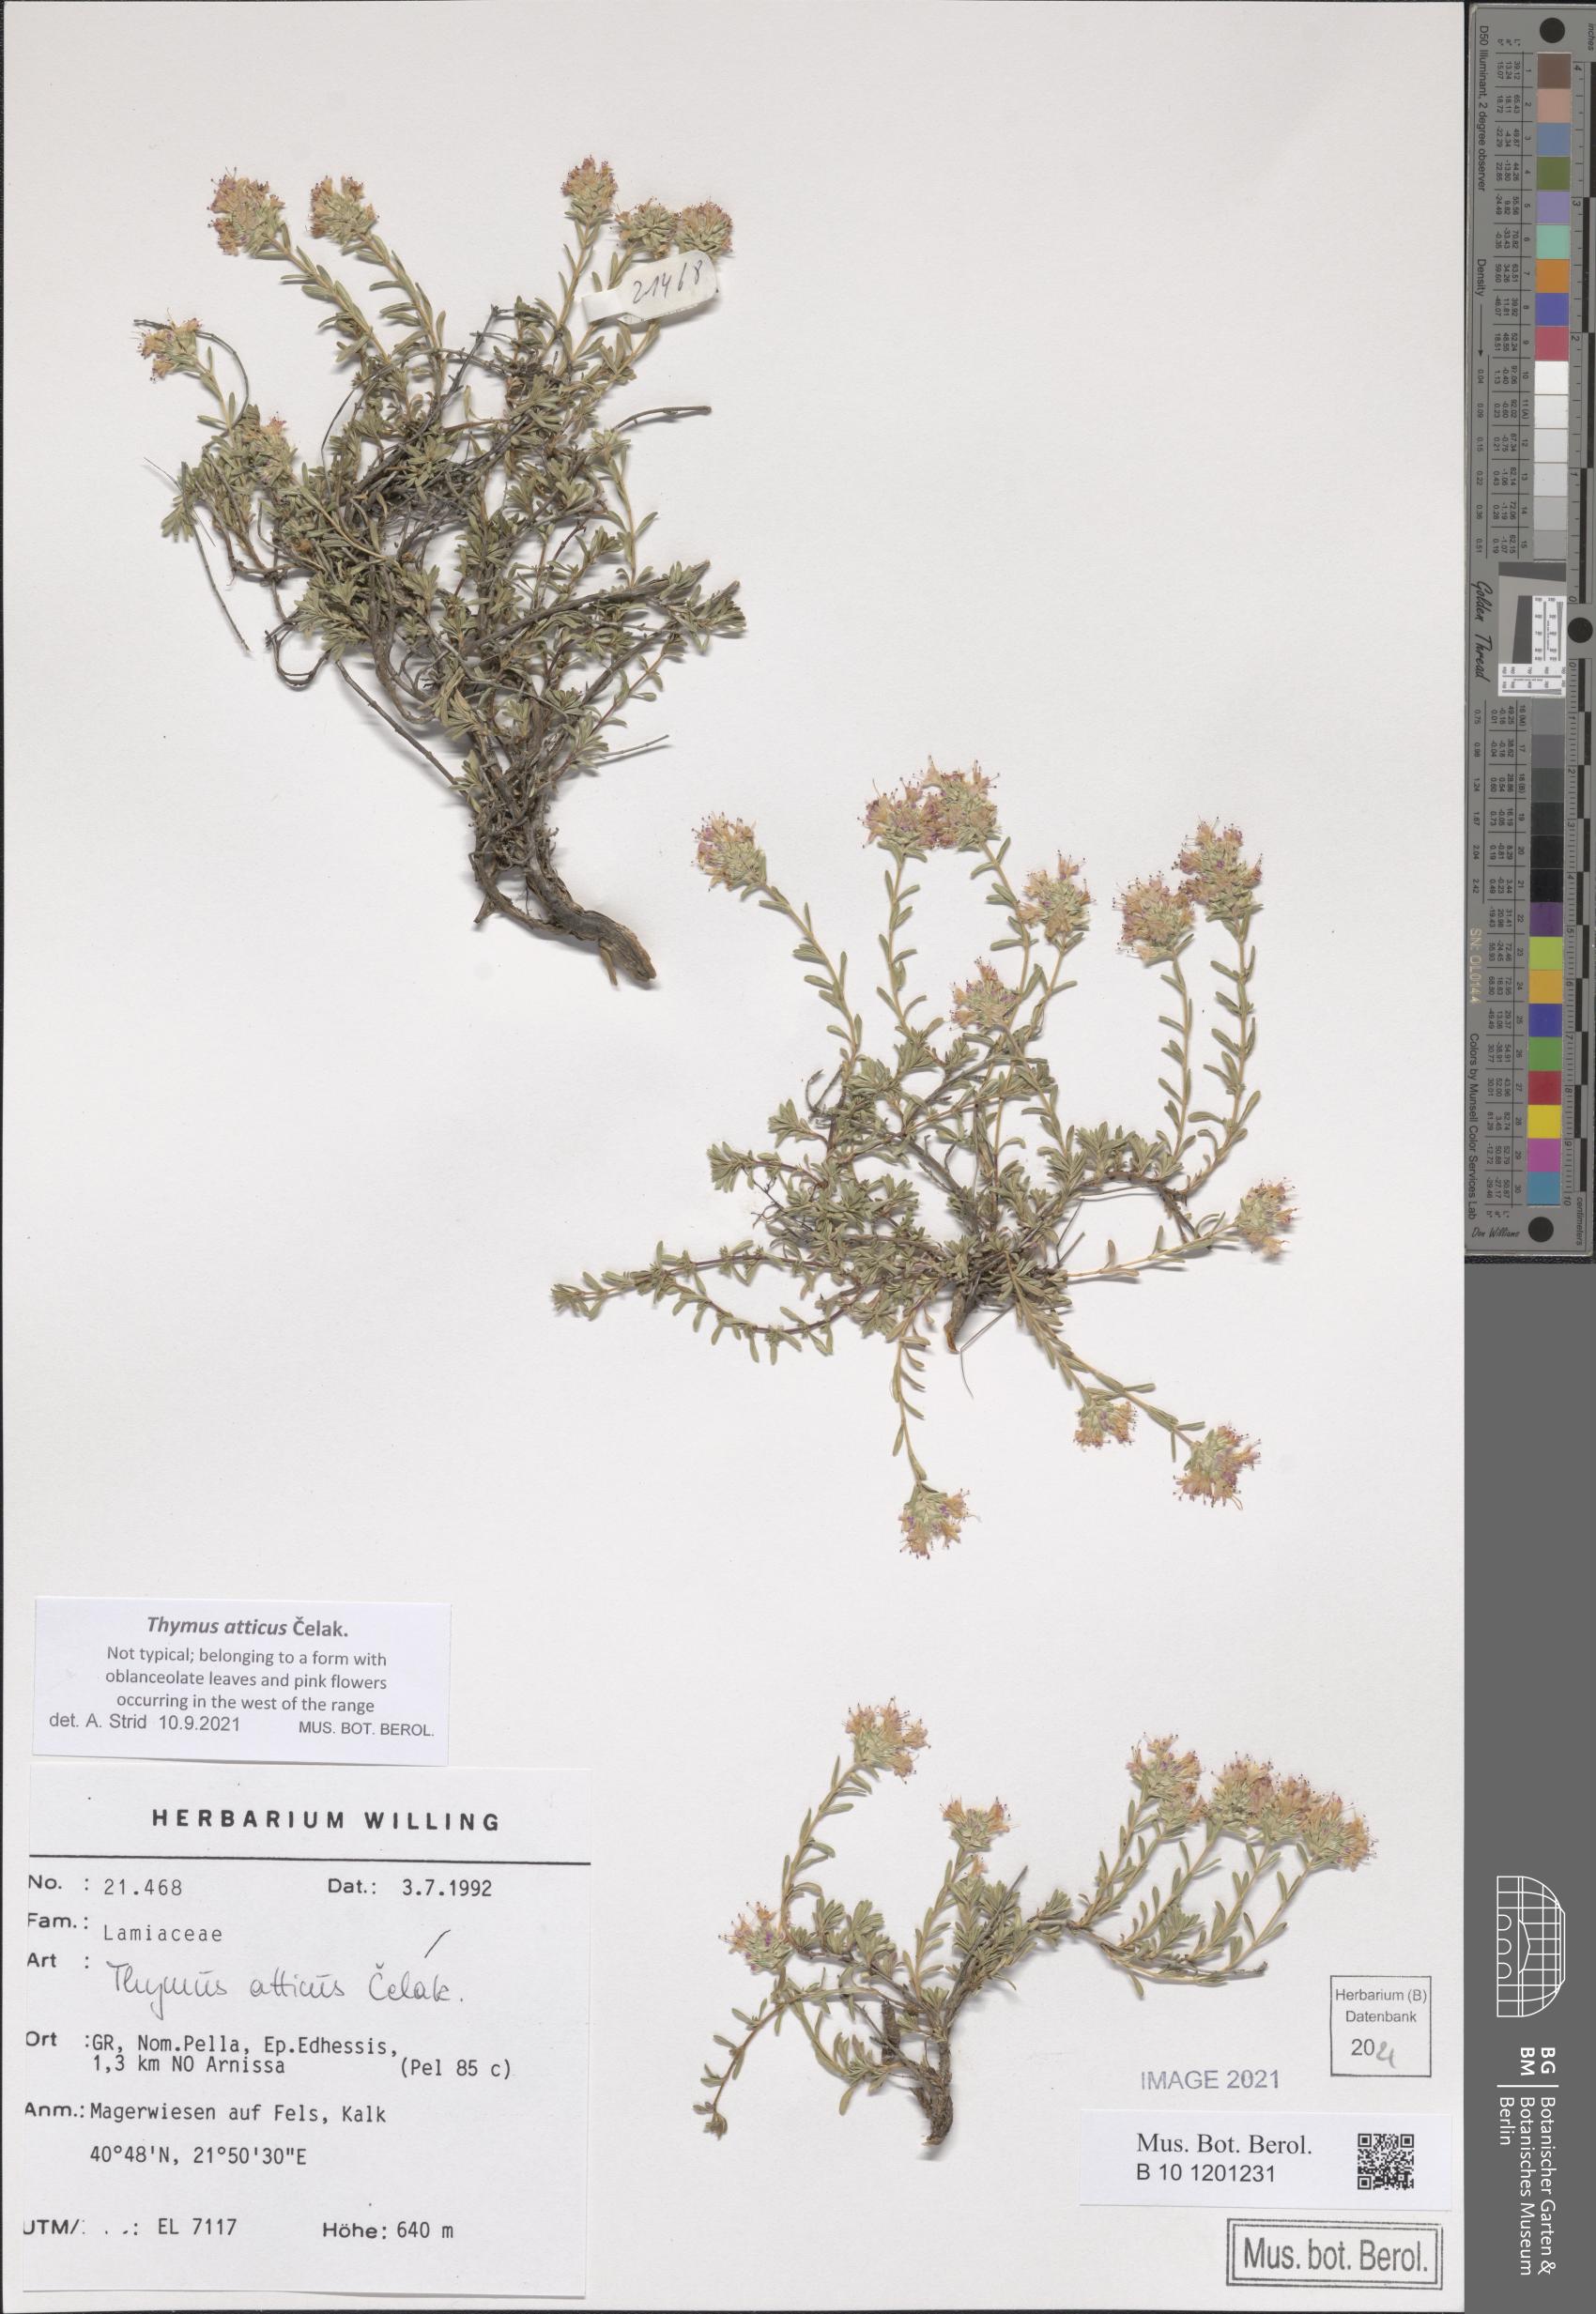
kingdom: Plantae
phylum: Tracheophyta
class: Magnoliopsida
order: Lamiales
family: Lamiaceae
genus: Thymus
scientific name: Thymus atticus
